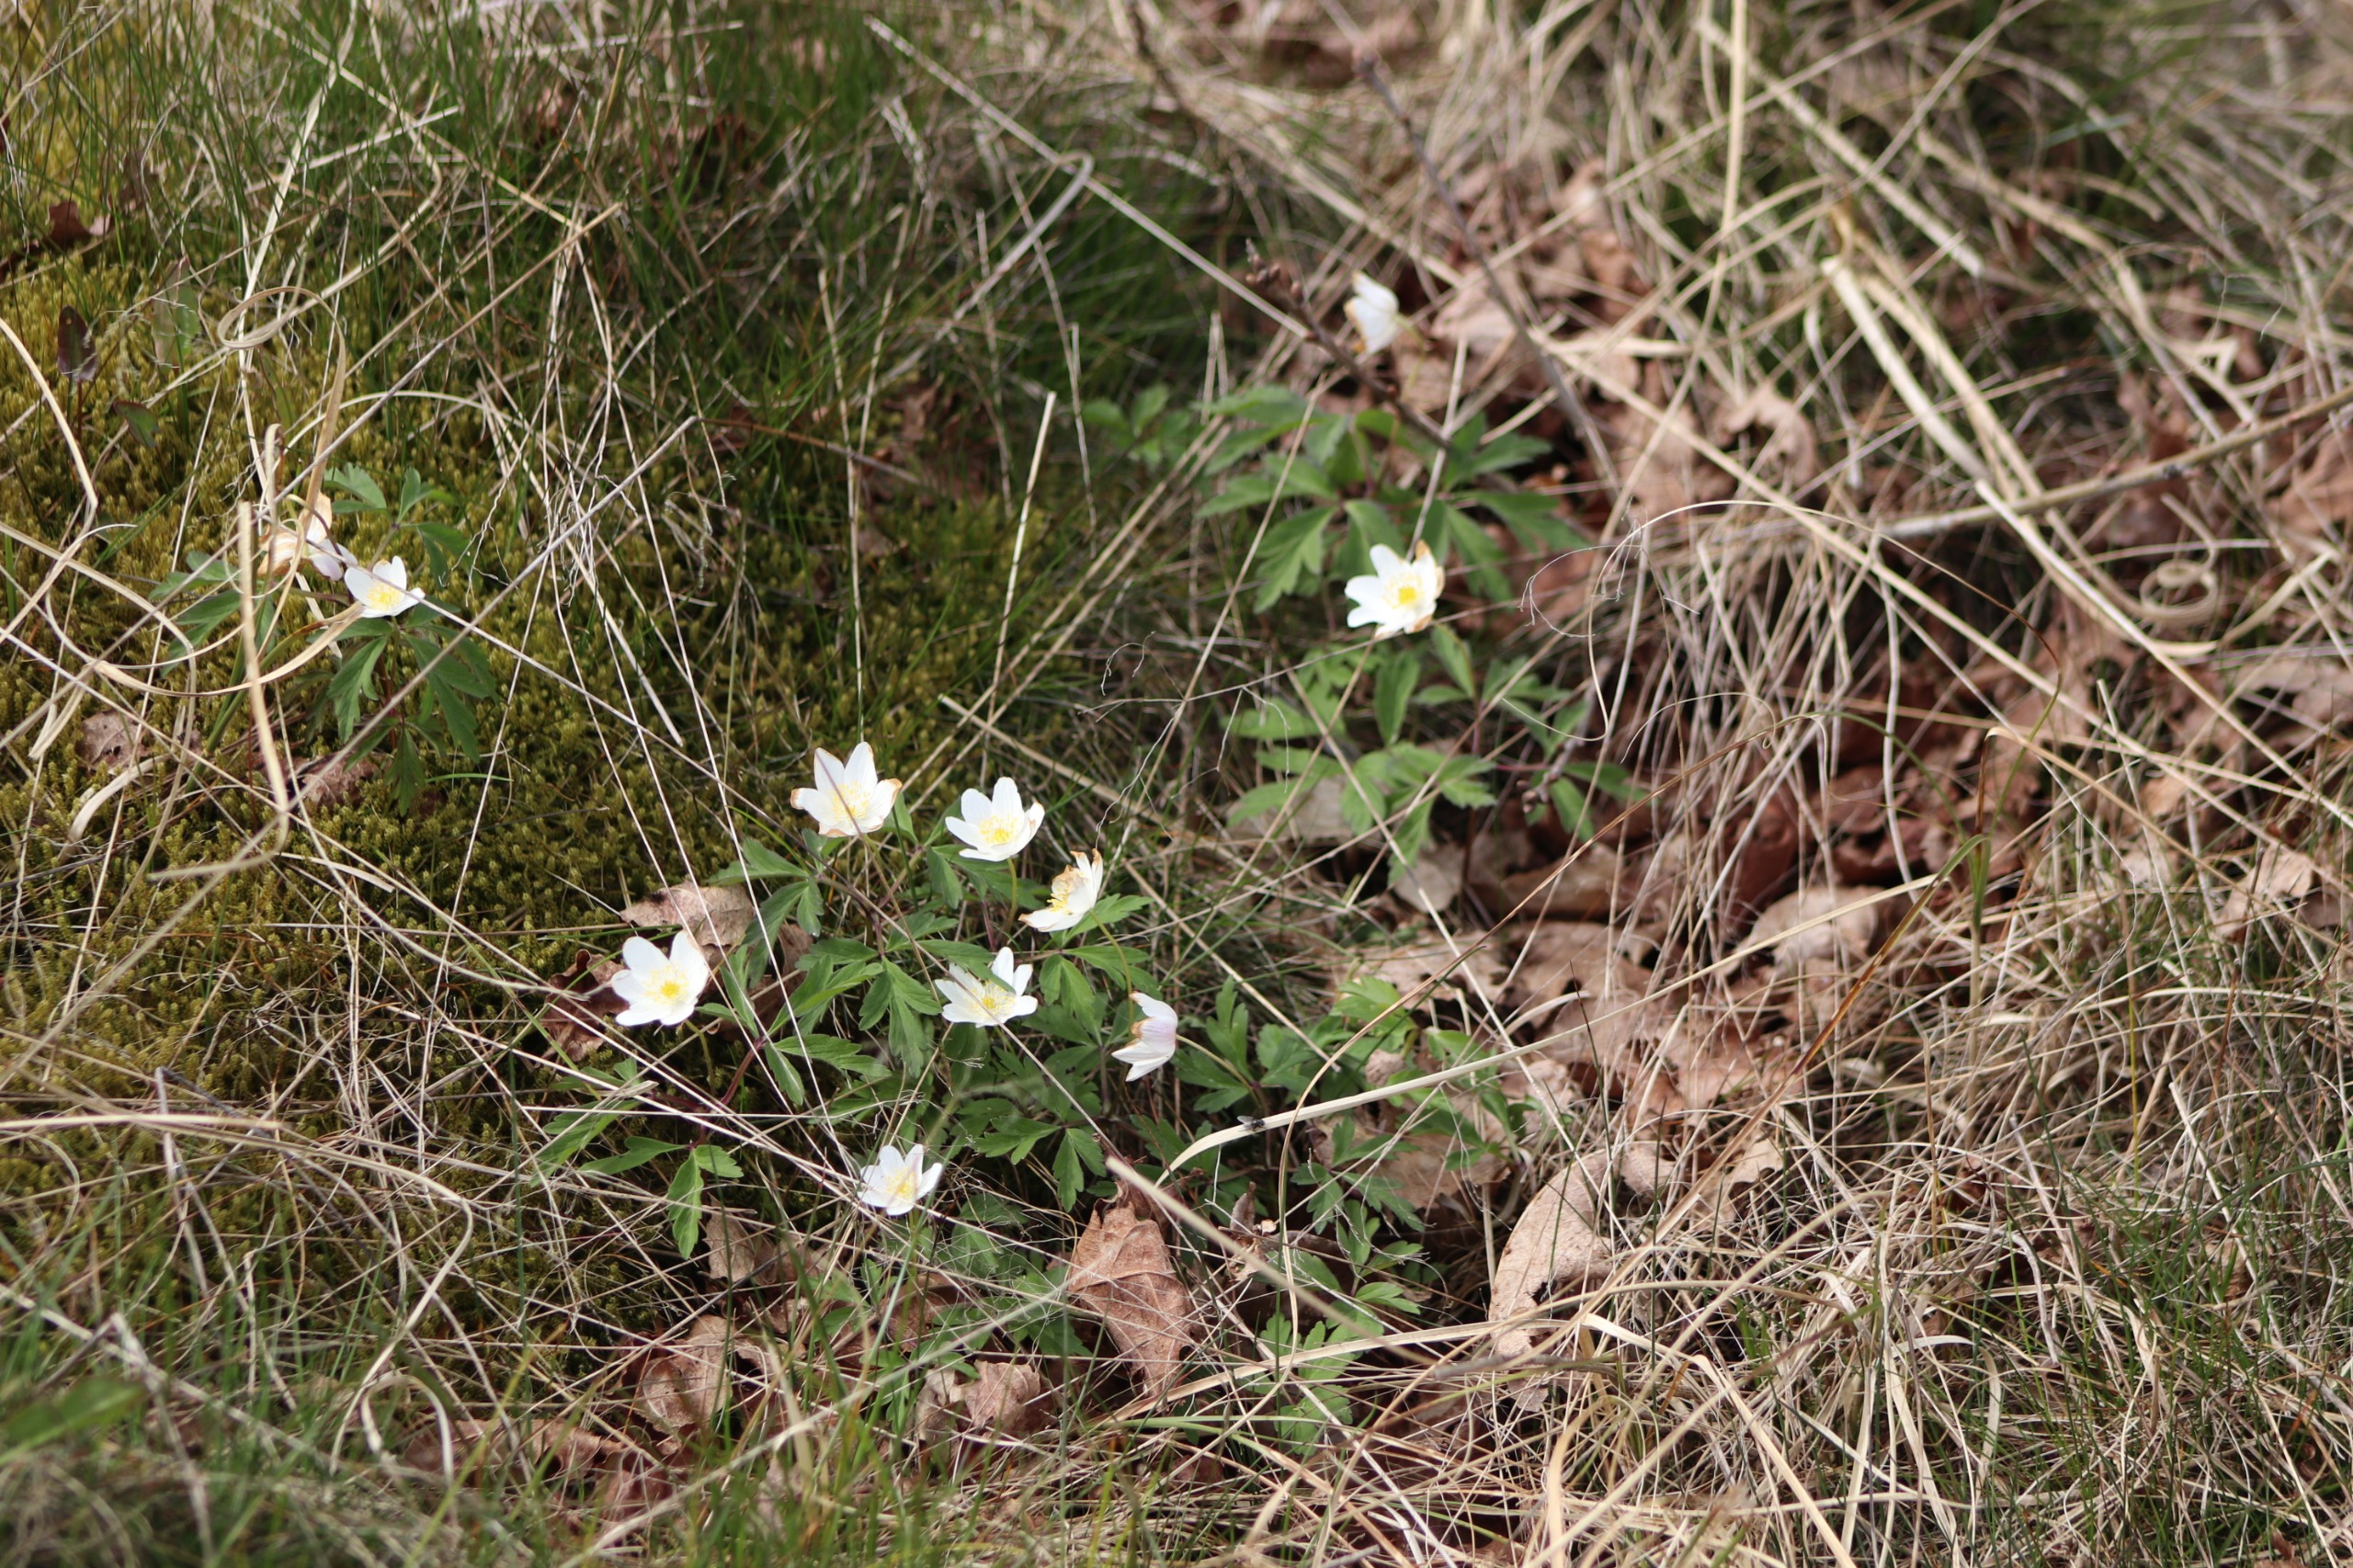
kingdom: Plantae
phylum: Tracheophyta
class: Magnoliopsida
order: Ranunculales
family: Ranunculaceae
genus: Anemone
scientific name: Anemone nemorosa
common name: Hvid anemone
